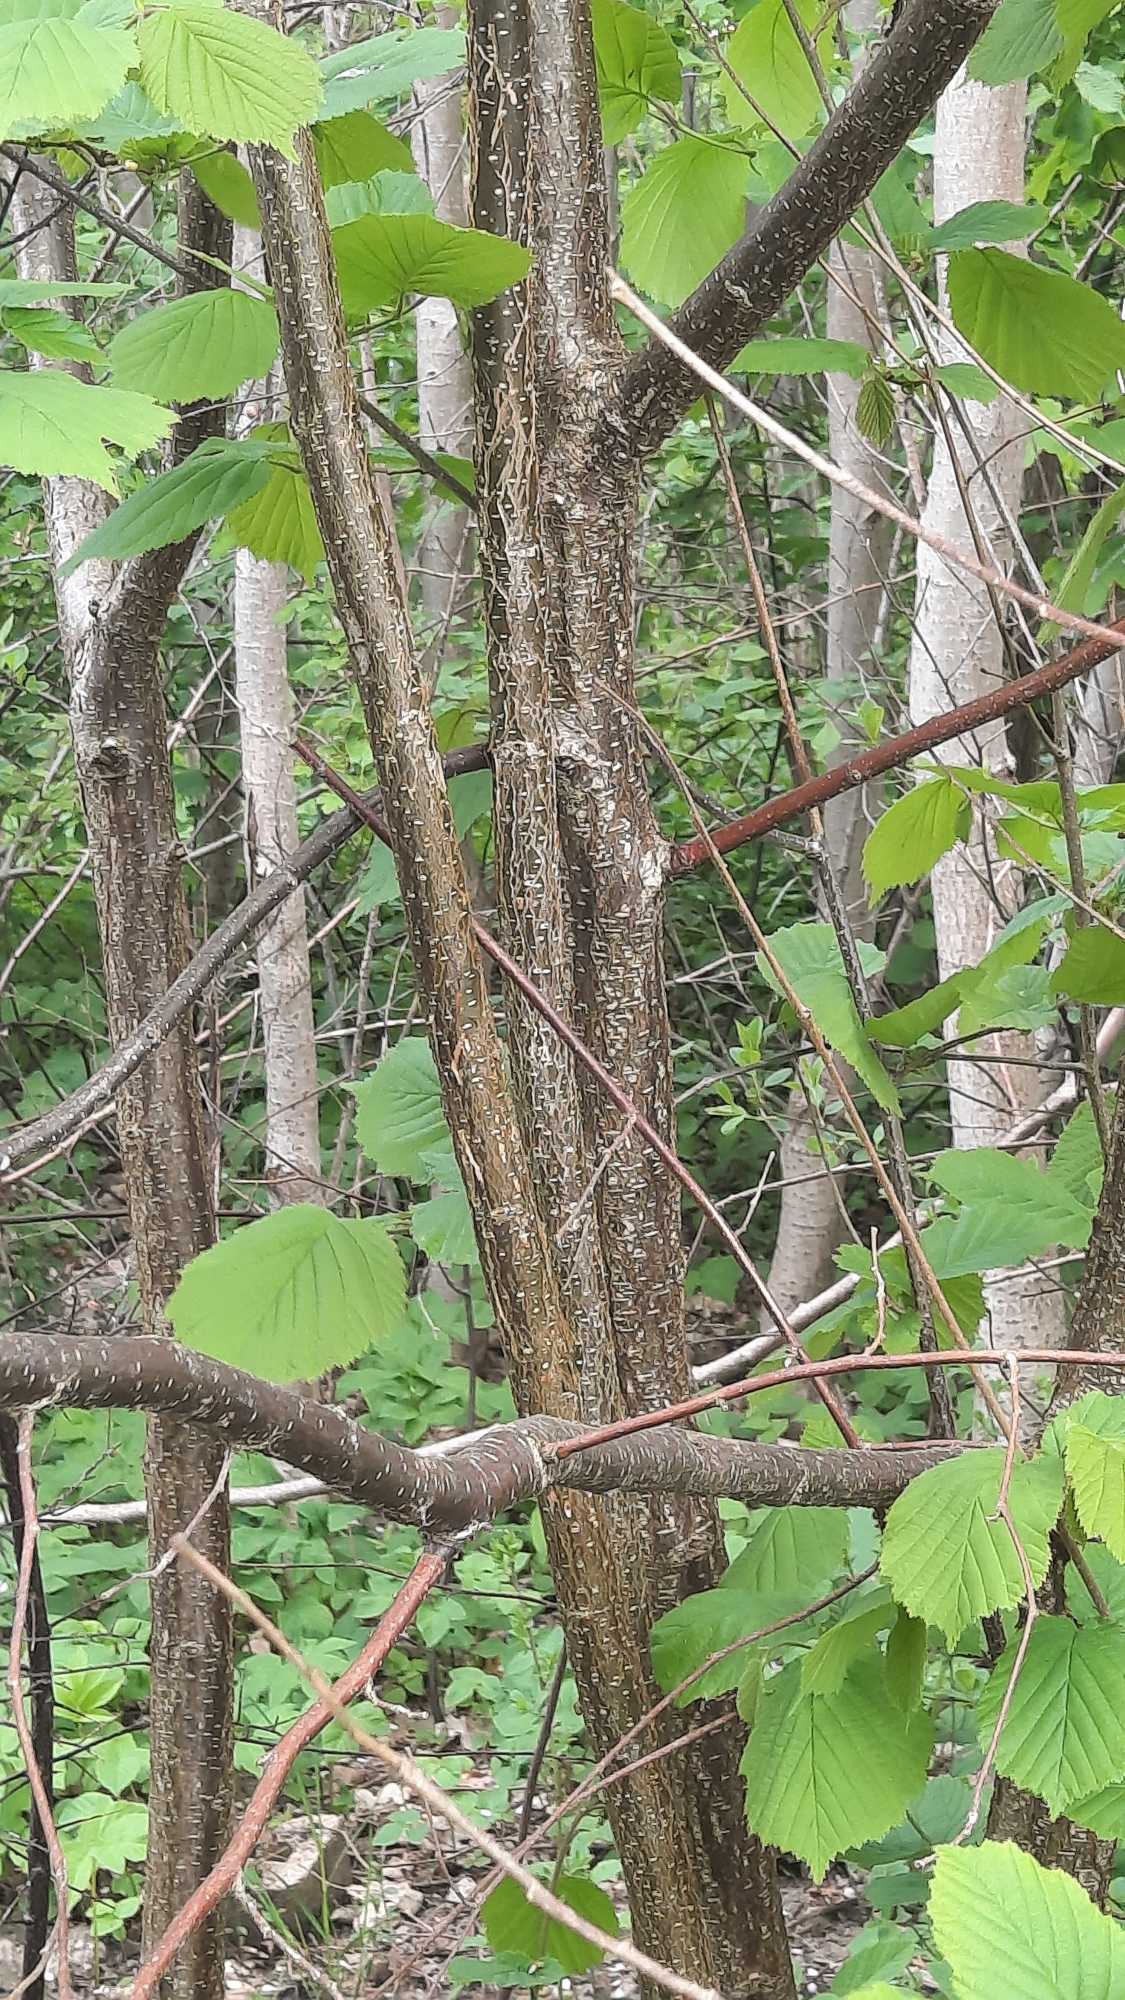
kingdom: Plantae
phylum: Tracheophyta
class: Magnoliopsida
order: Fagales
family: Betulaceae
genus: Corylus
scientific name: Corylus avellana
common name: Hassel
